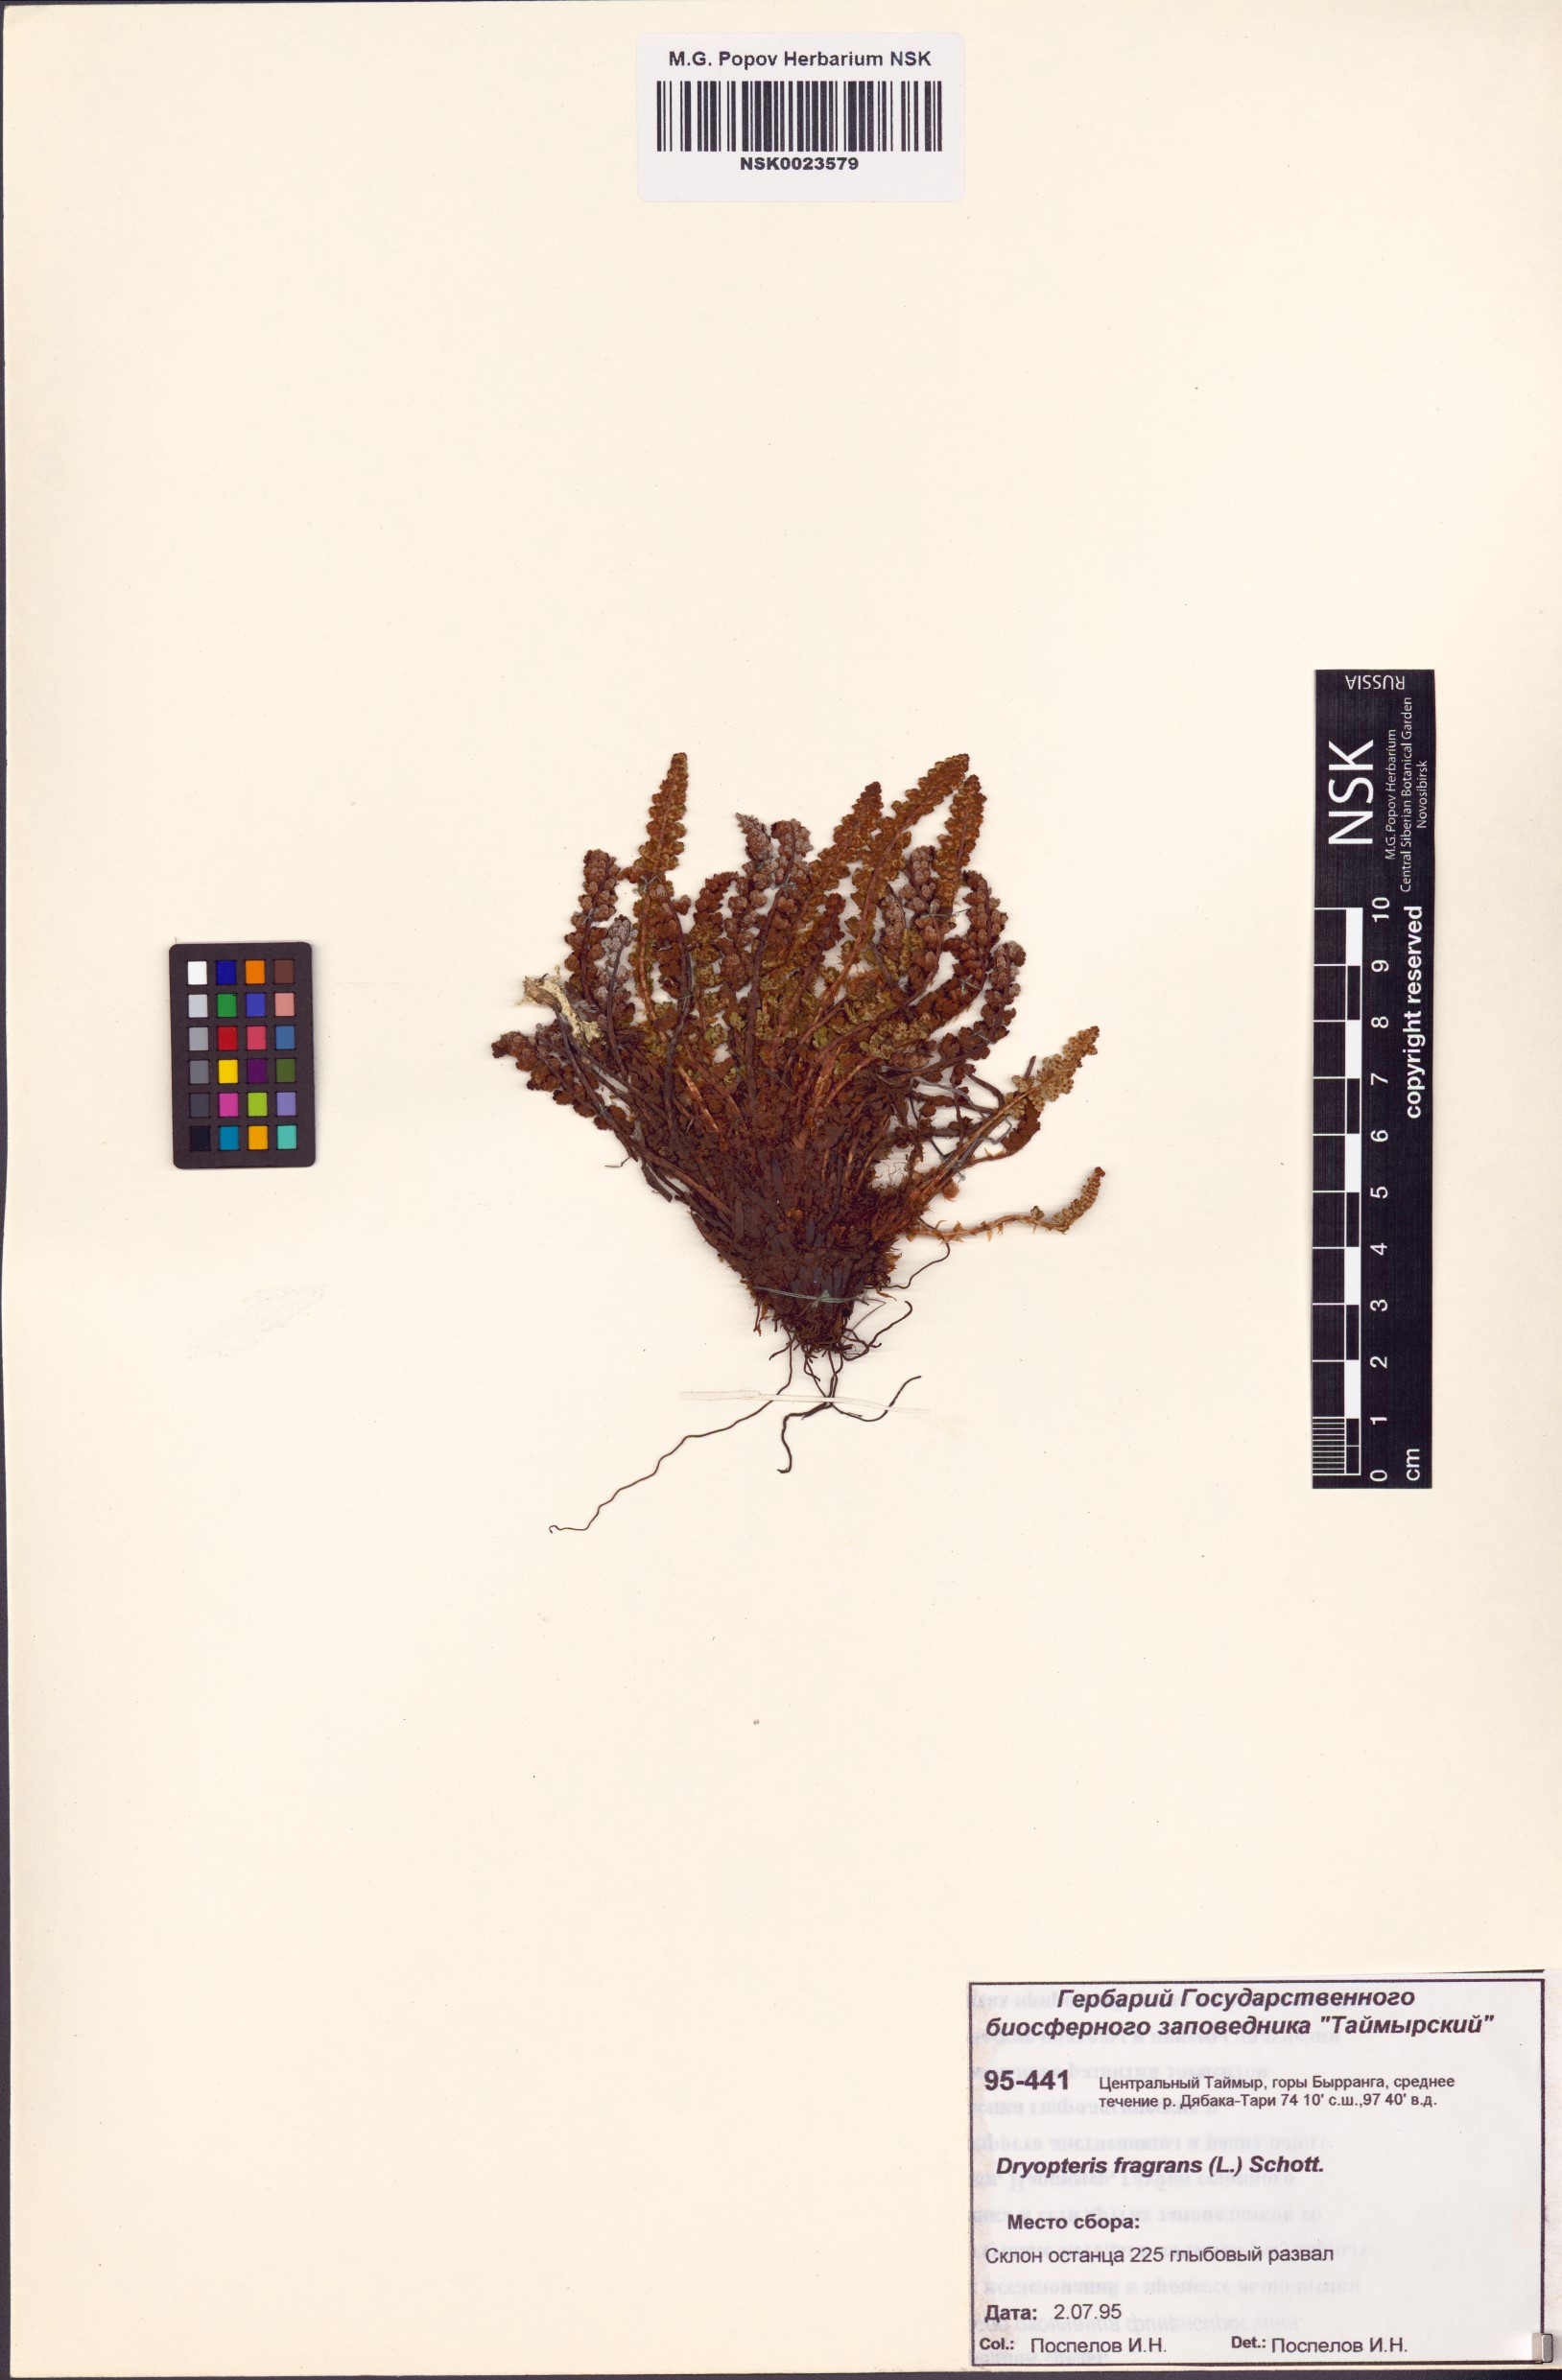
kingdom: Plantae
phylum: Tracheophyta
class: Polypodiopsida
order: Polypodiales
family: Dryopteridaceae
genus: Dryopteris
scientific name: Dryopteris fragrans
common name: Fragrant wood fern
